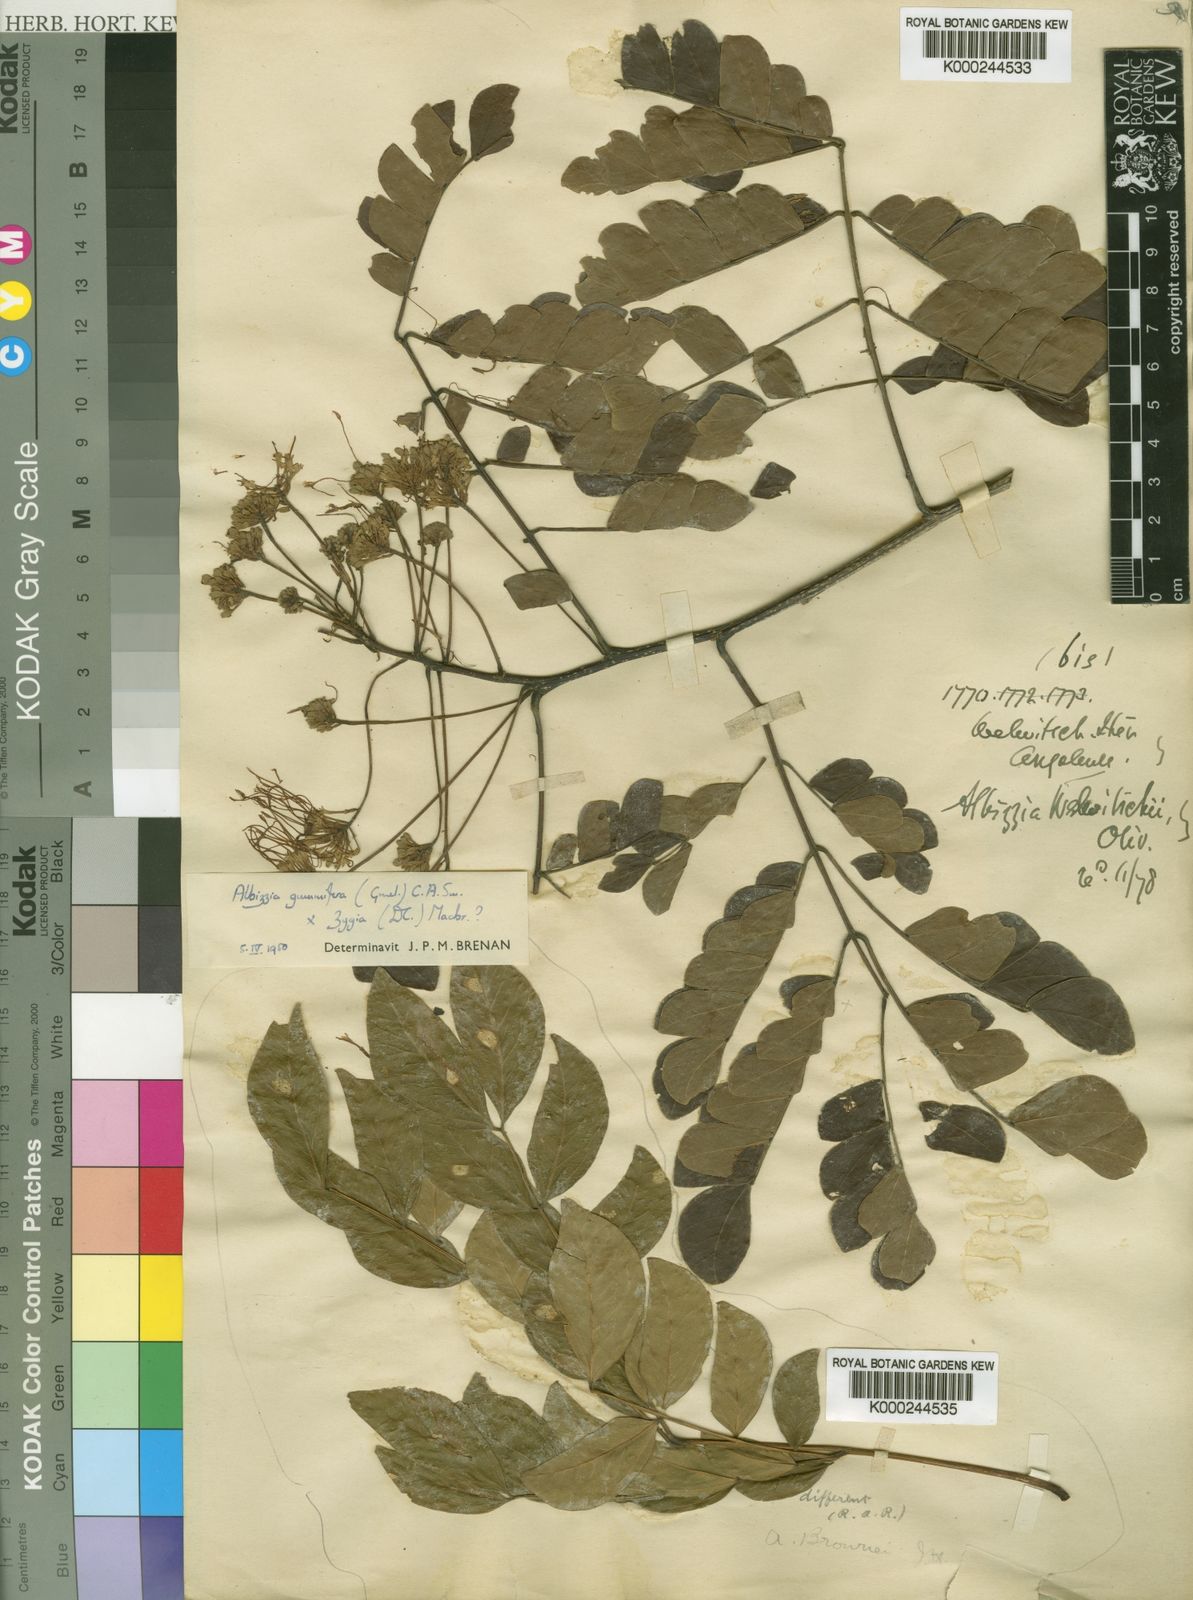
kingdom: Plantae
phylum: Tracheophyta
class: Magnoliopsida
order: Fabales
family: Fabaceae
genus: Albizia
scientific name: Albizia adianthifolia
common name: West african albizia
